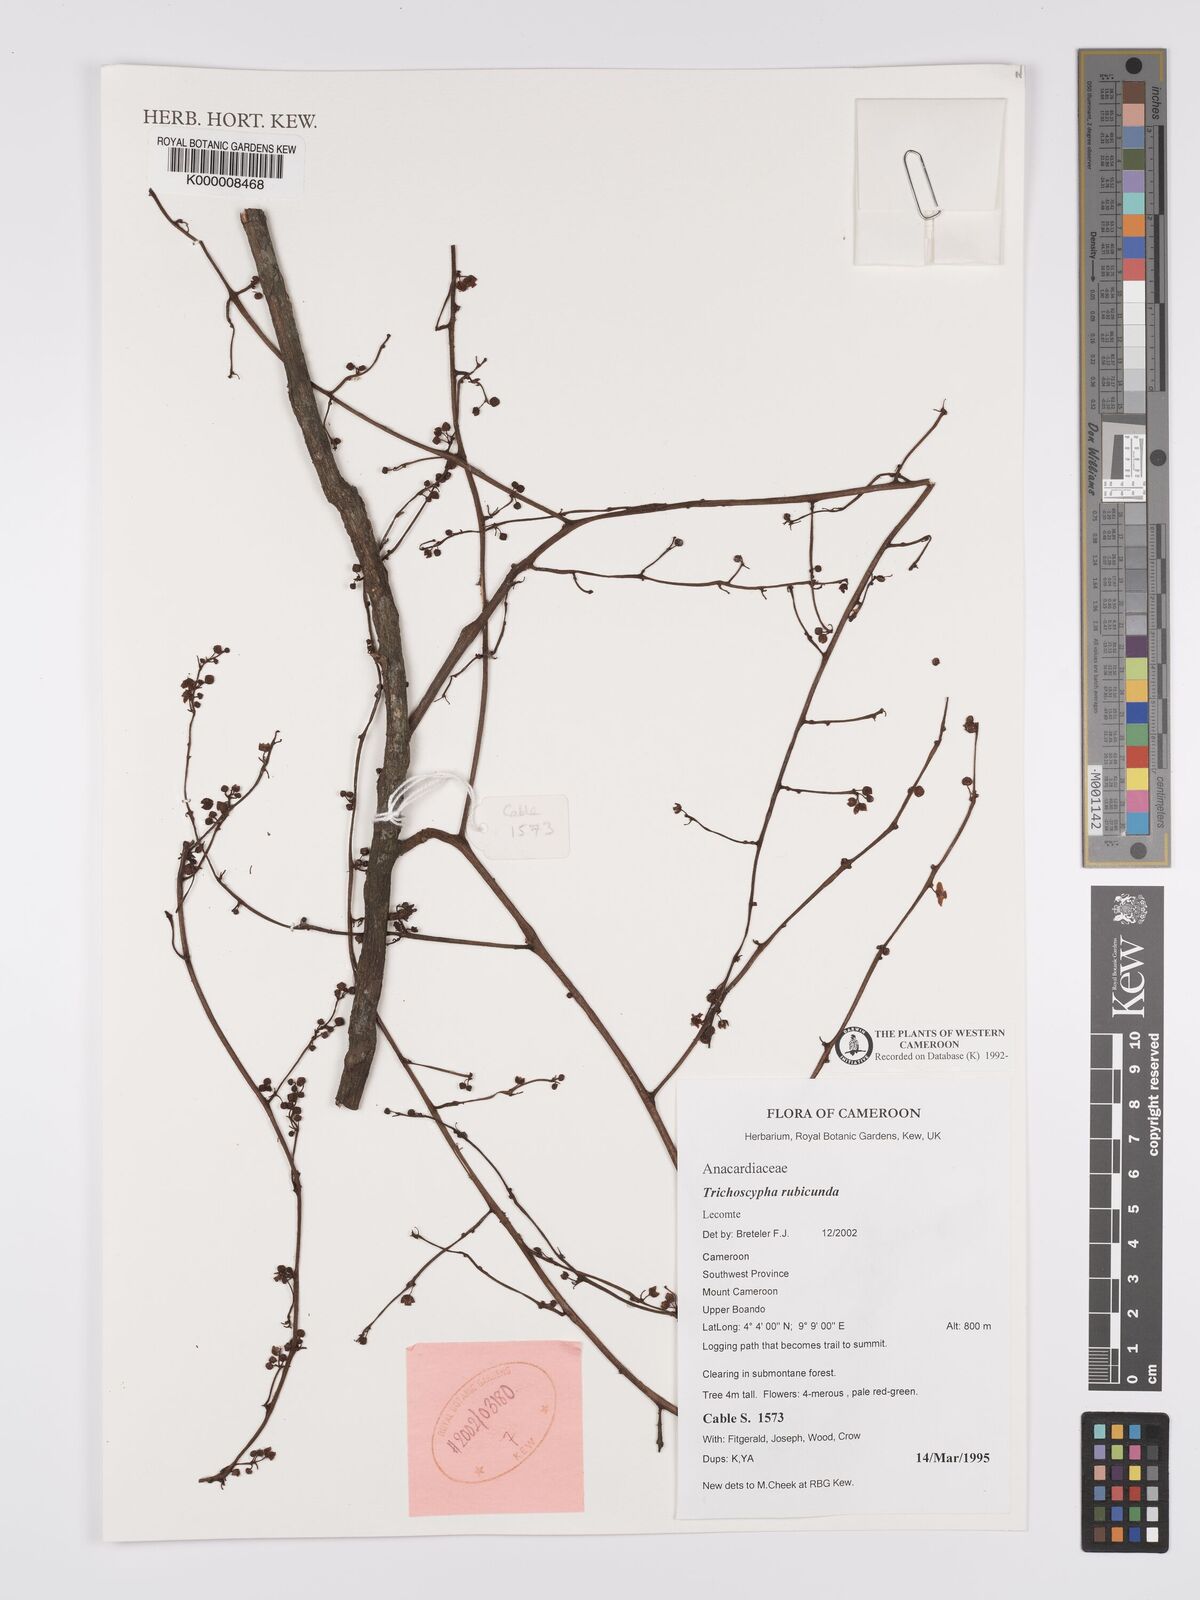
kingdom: Plantae
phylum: Tracheophyta
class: Magnoliopsida
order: Sapindales
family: Anacardiaceae
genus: Trichoscypha
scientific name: Trichoscypha rubicunda
